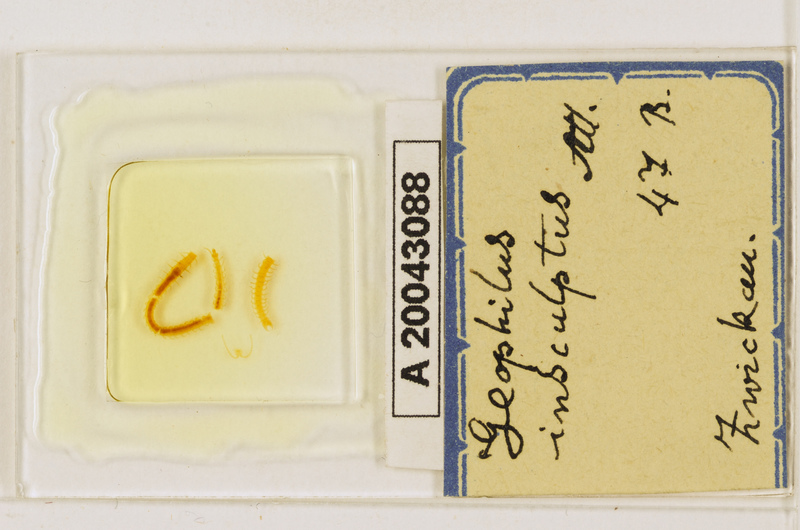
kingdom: Animalia
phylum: Arthropoda
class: Chilopoda
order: Geophilomorpha
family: Geophilidae
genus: Geophilus
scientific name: Geophilus insculptus
